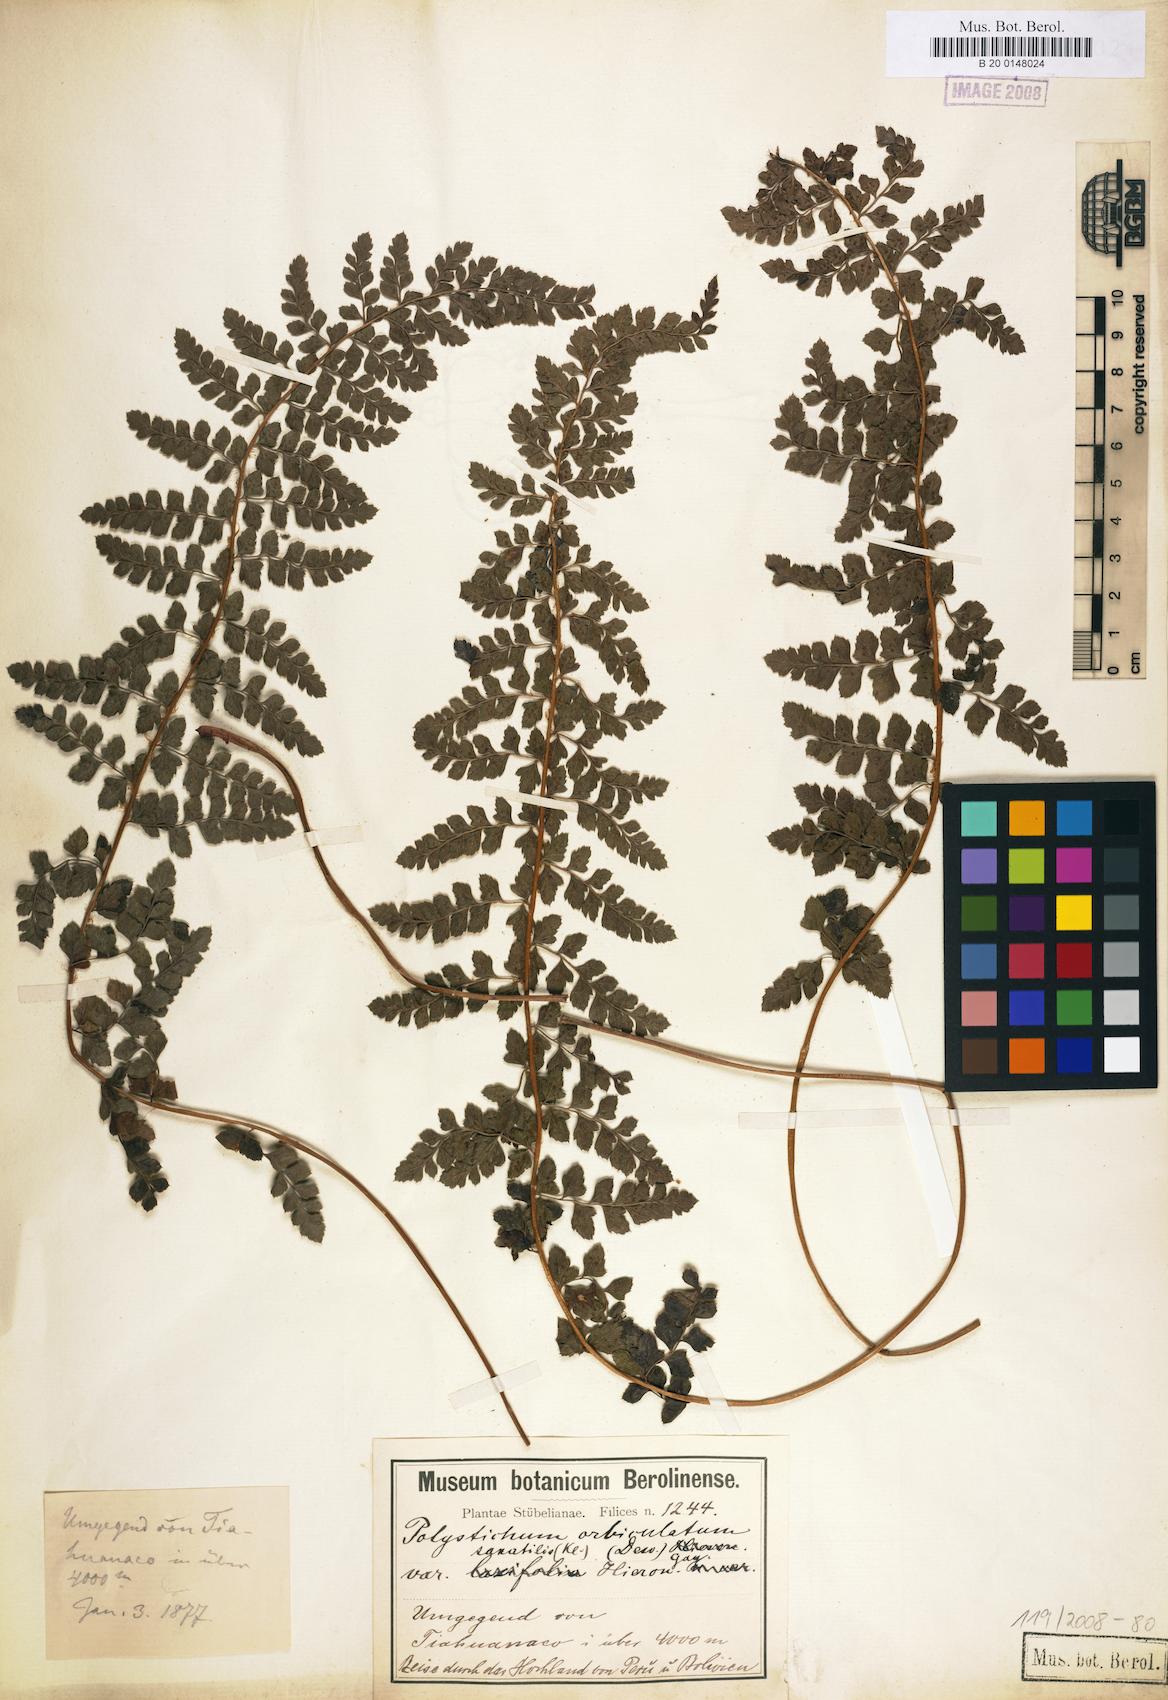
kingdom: Plantae
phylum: Tracheophyta
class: Polypodiopsida
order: Polypodiales
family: Dryopteridaceae
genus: Polystichum
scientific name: Polystichum orbiculatum
